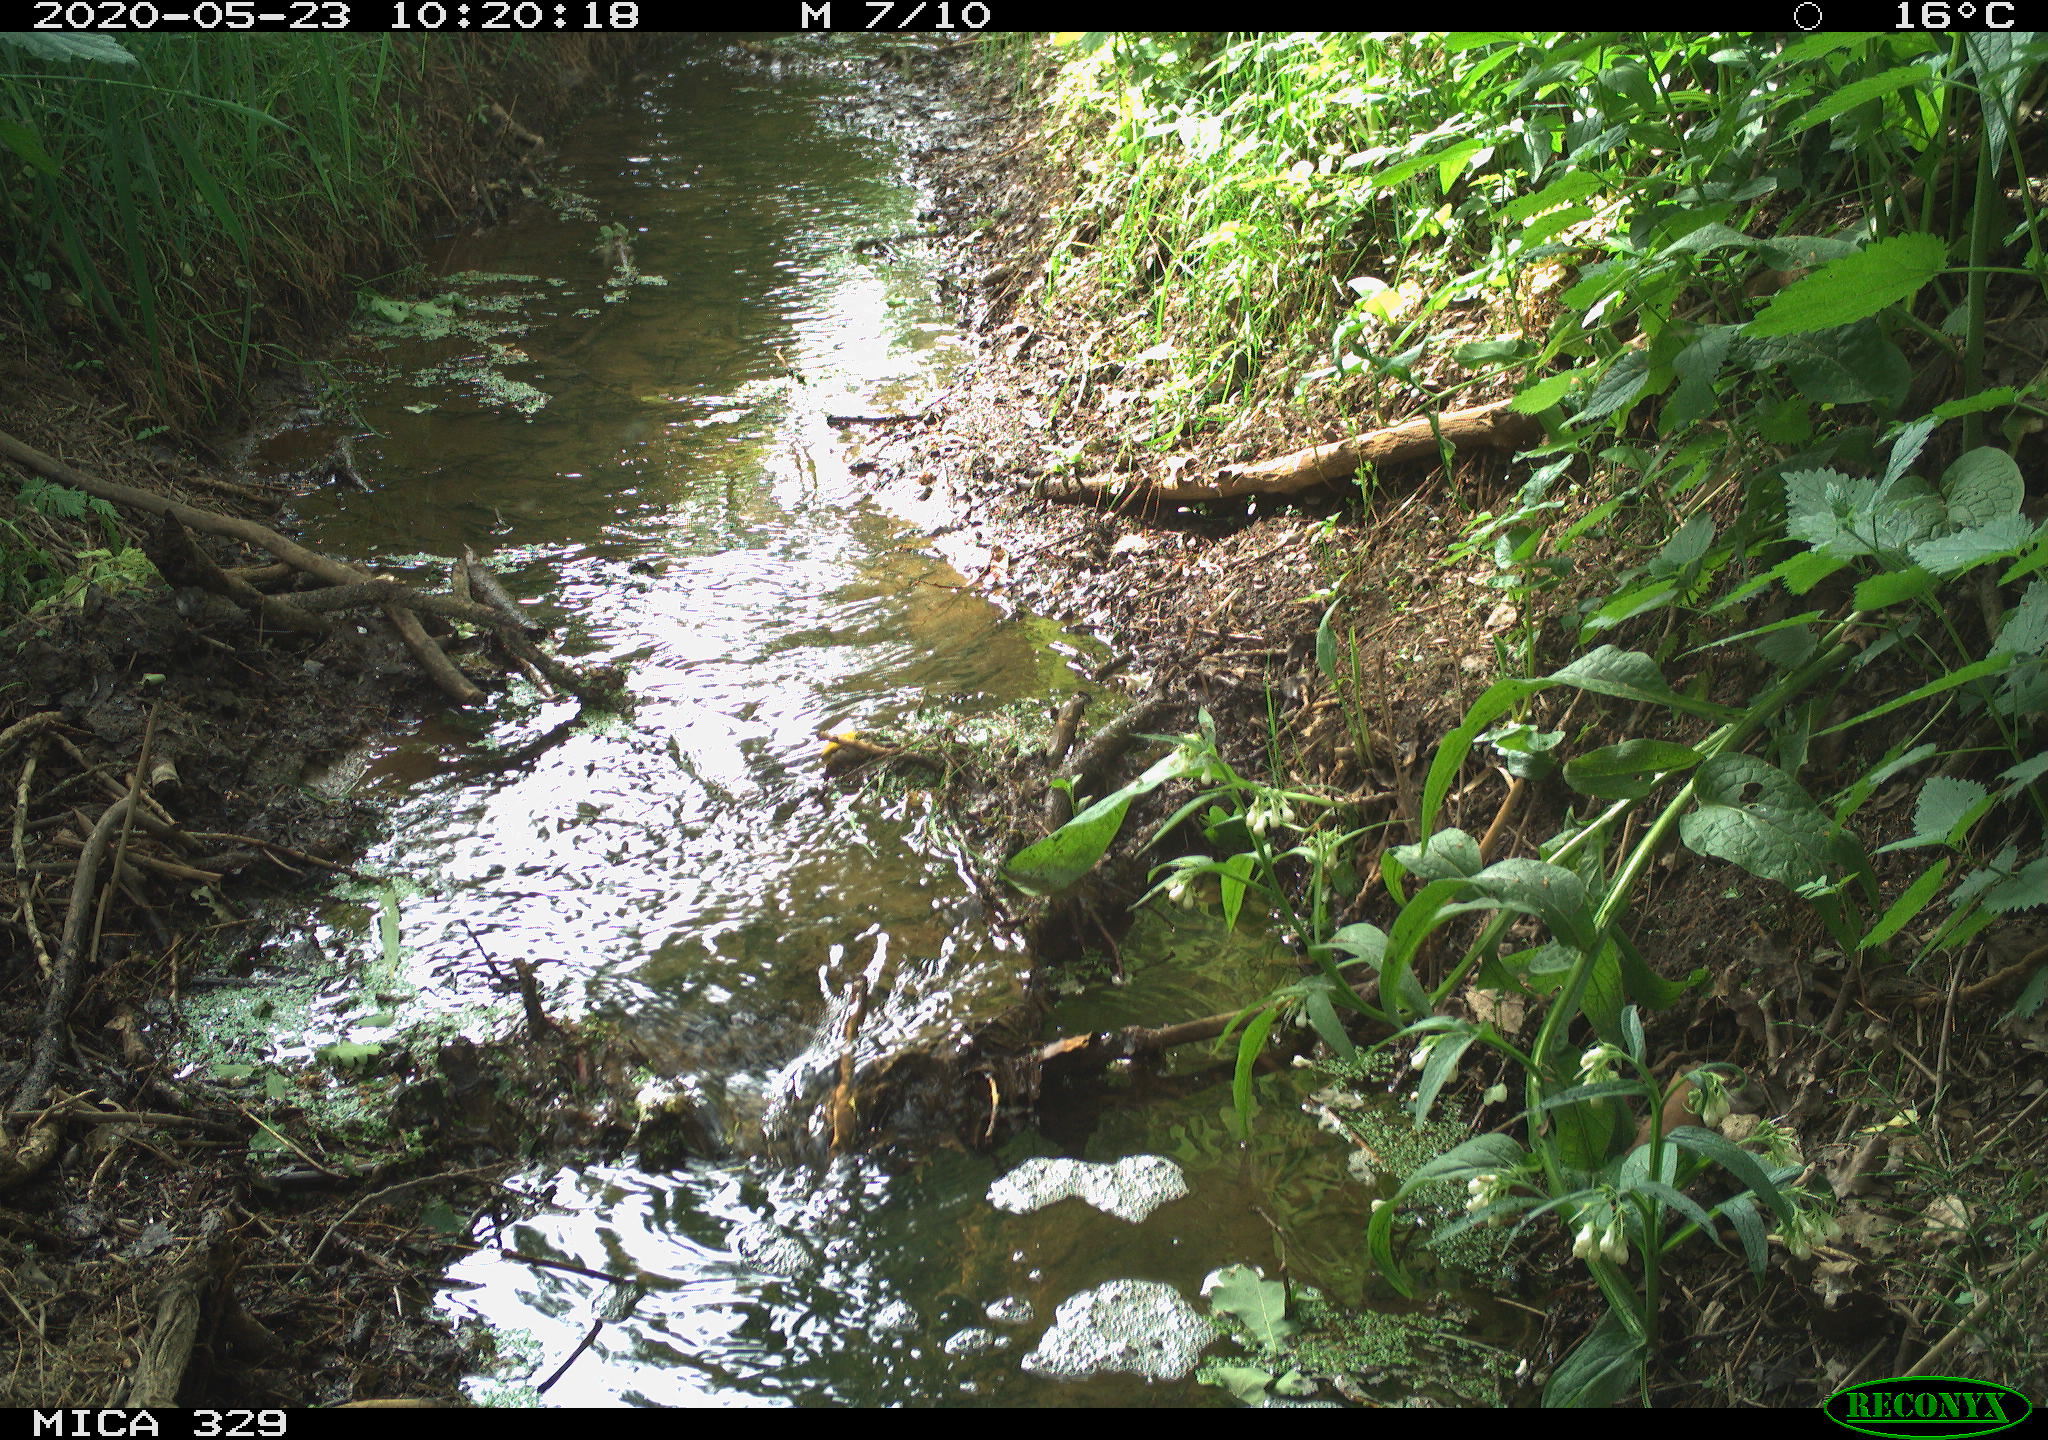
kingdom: Animalia
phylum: Chordata
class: Aves
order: Passeriformes
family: Turdidae
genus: Turdus
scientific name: Turdus merula
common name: Common blackbird
